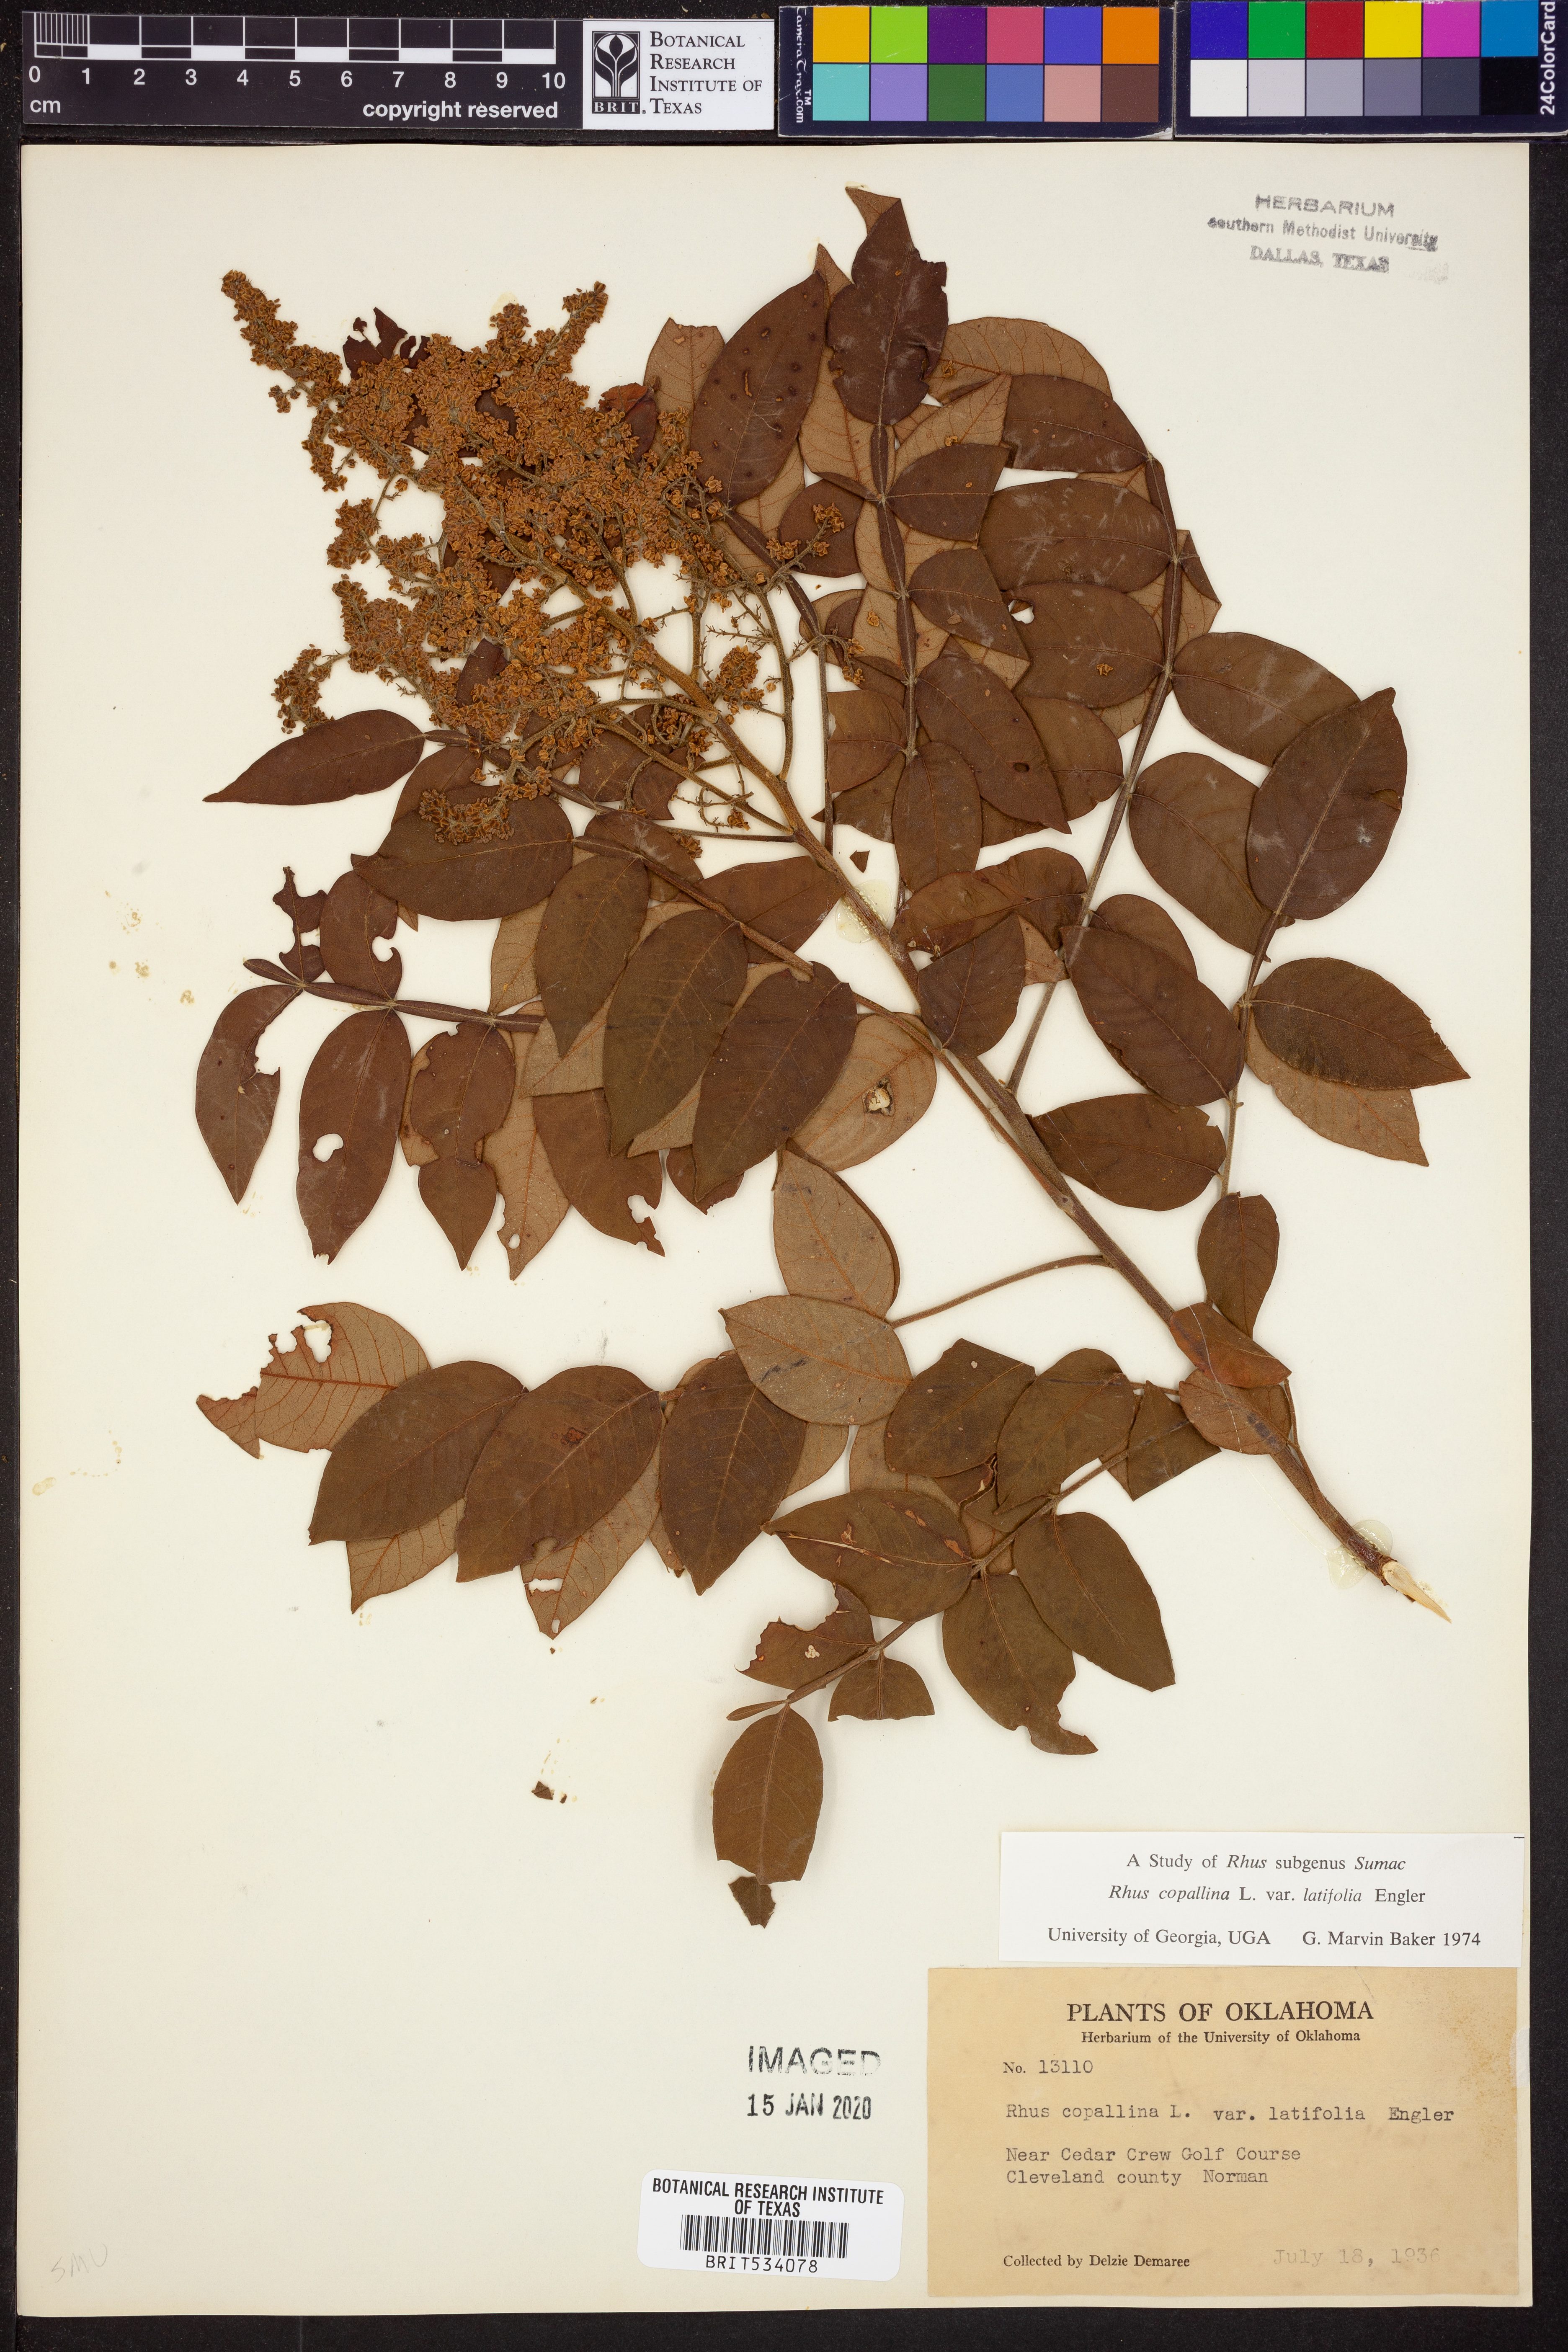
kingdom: Plantae
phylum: Tracheophyta
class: Magnoliopsida
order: Sapindales
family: Anacardiaceae
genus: Rhus
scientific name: Rhus copallina
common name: Shining sumac
